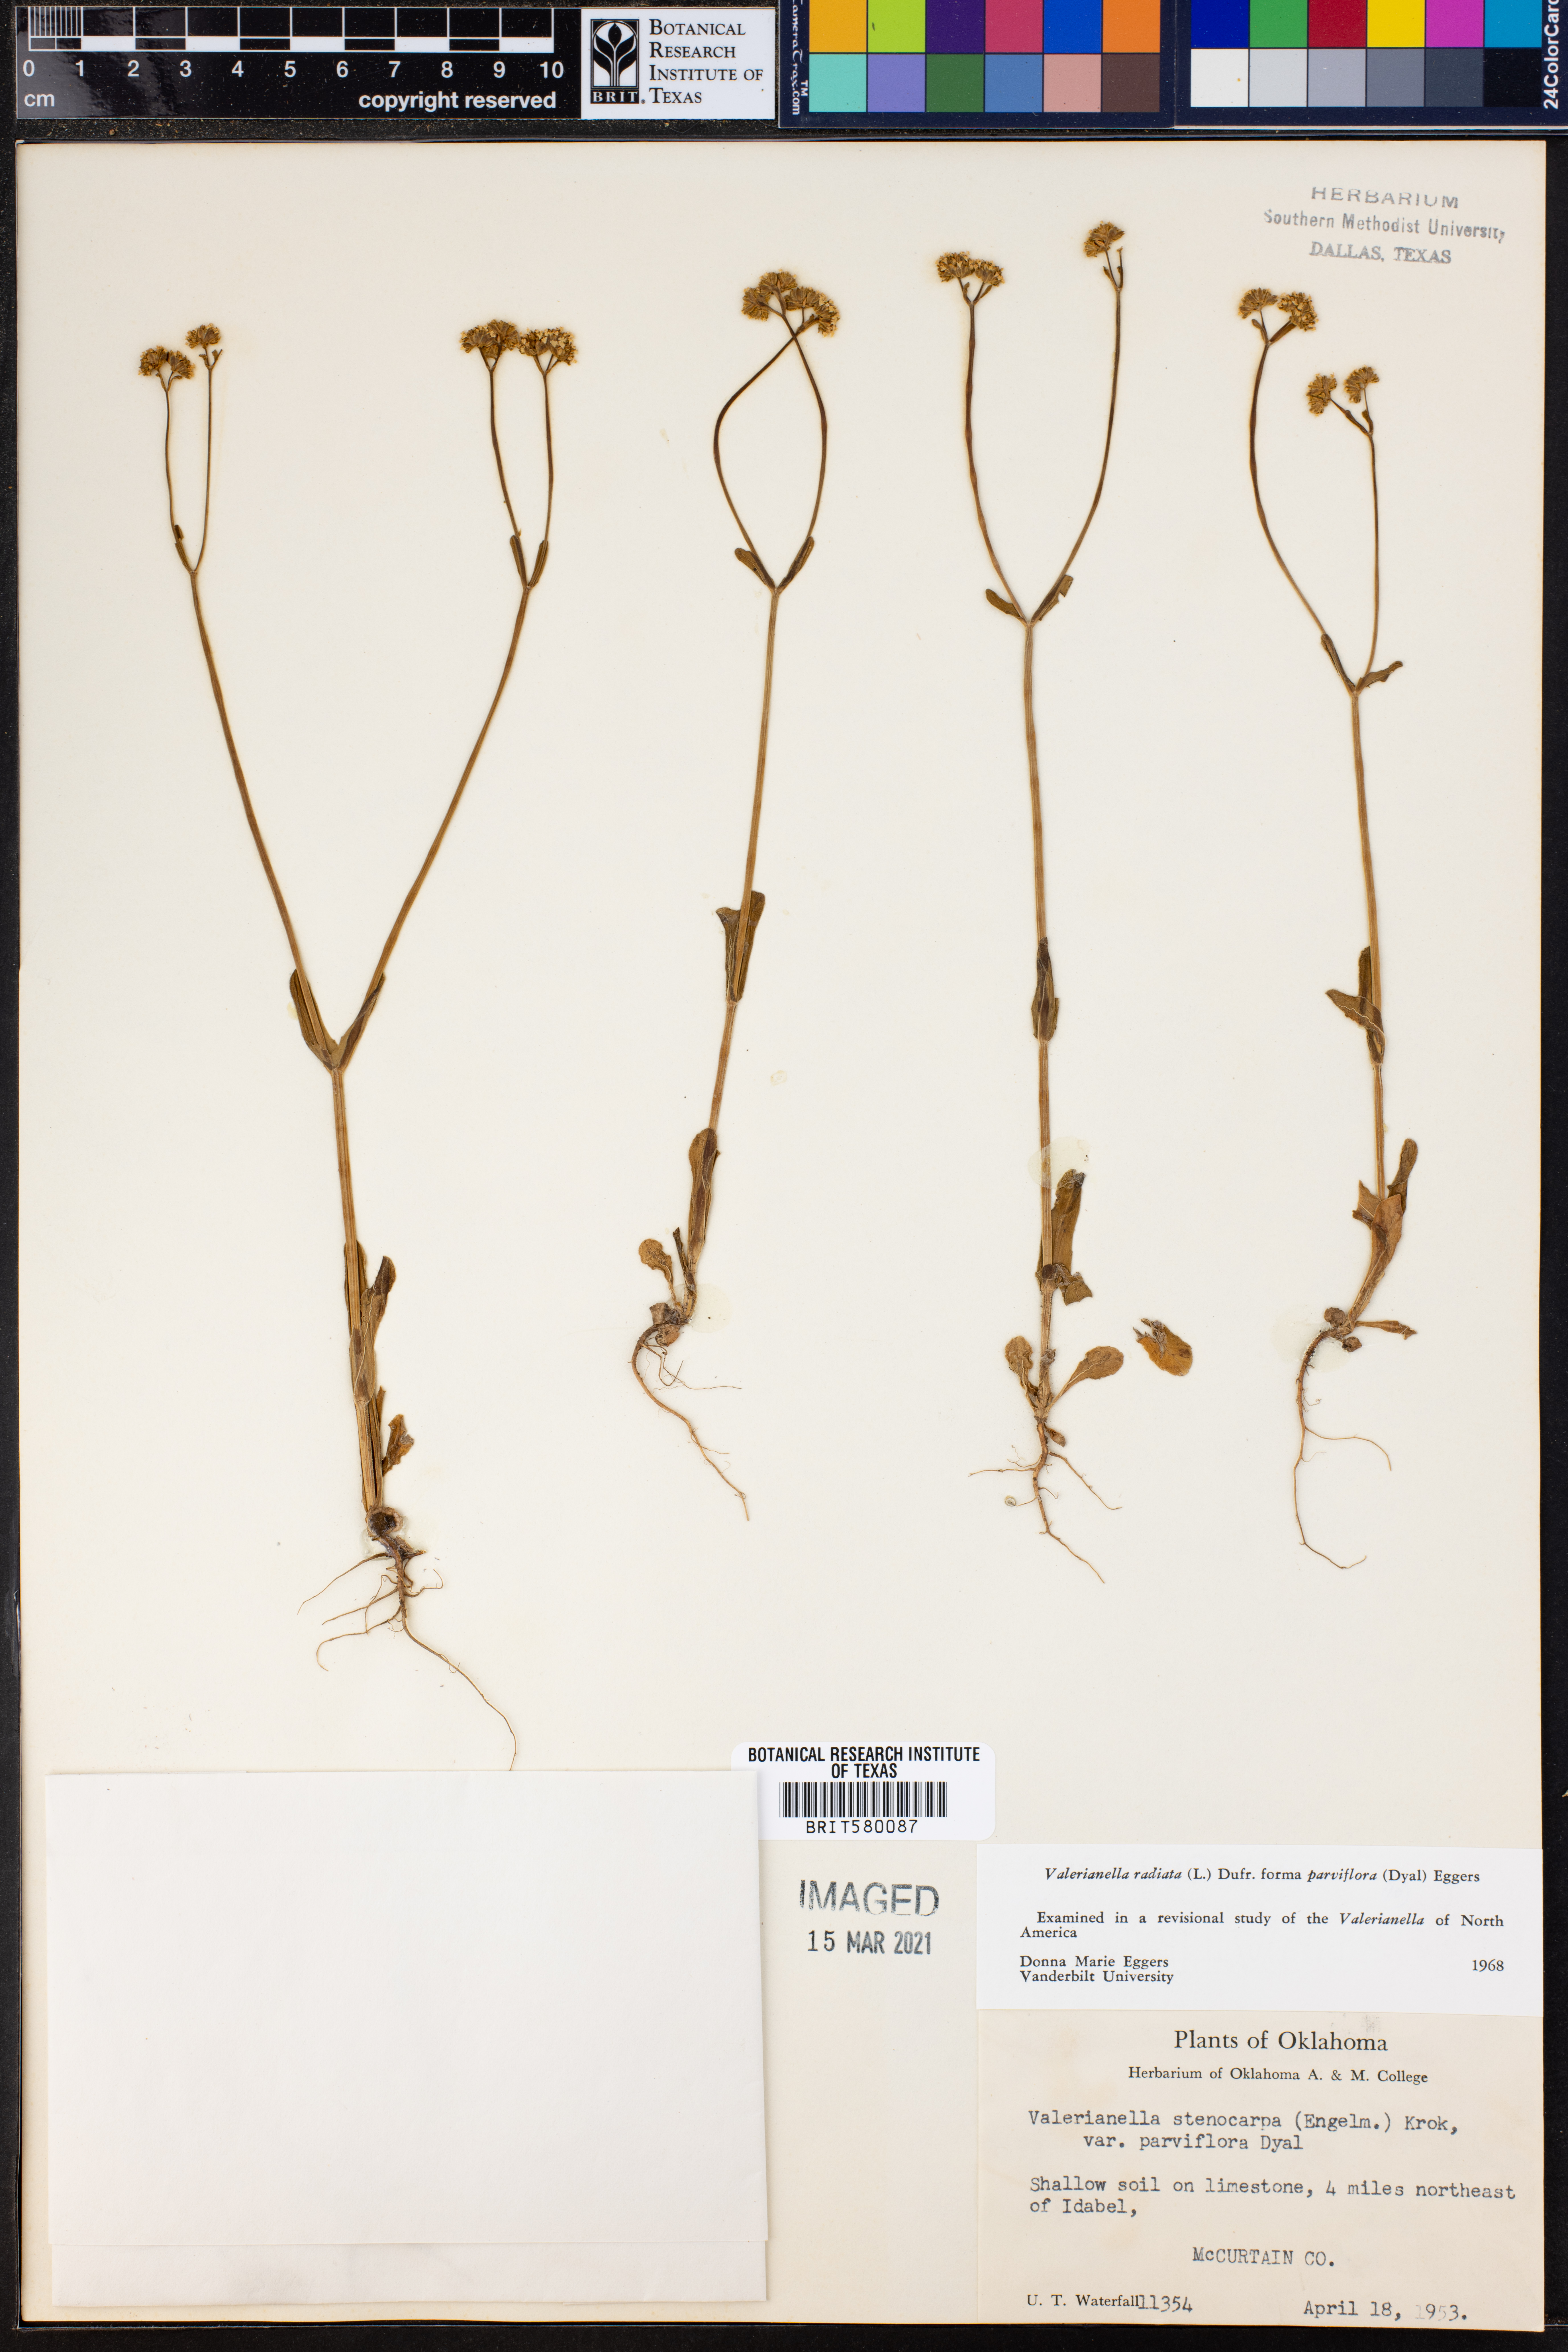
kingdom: Plantae
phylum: Tracheophyta
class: Magnoliopsida
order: Dipsacales
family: Caprifoliaceae
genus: Valerianella
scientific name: Valerianella radiata
